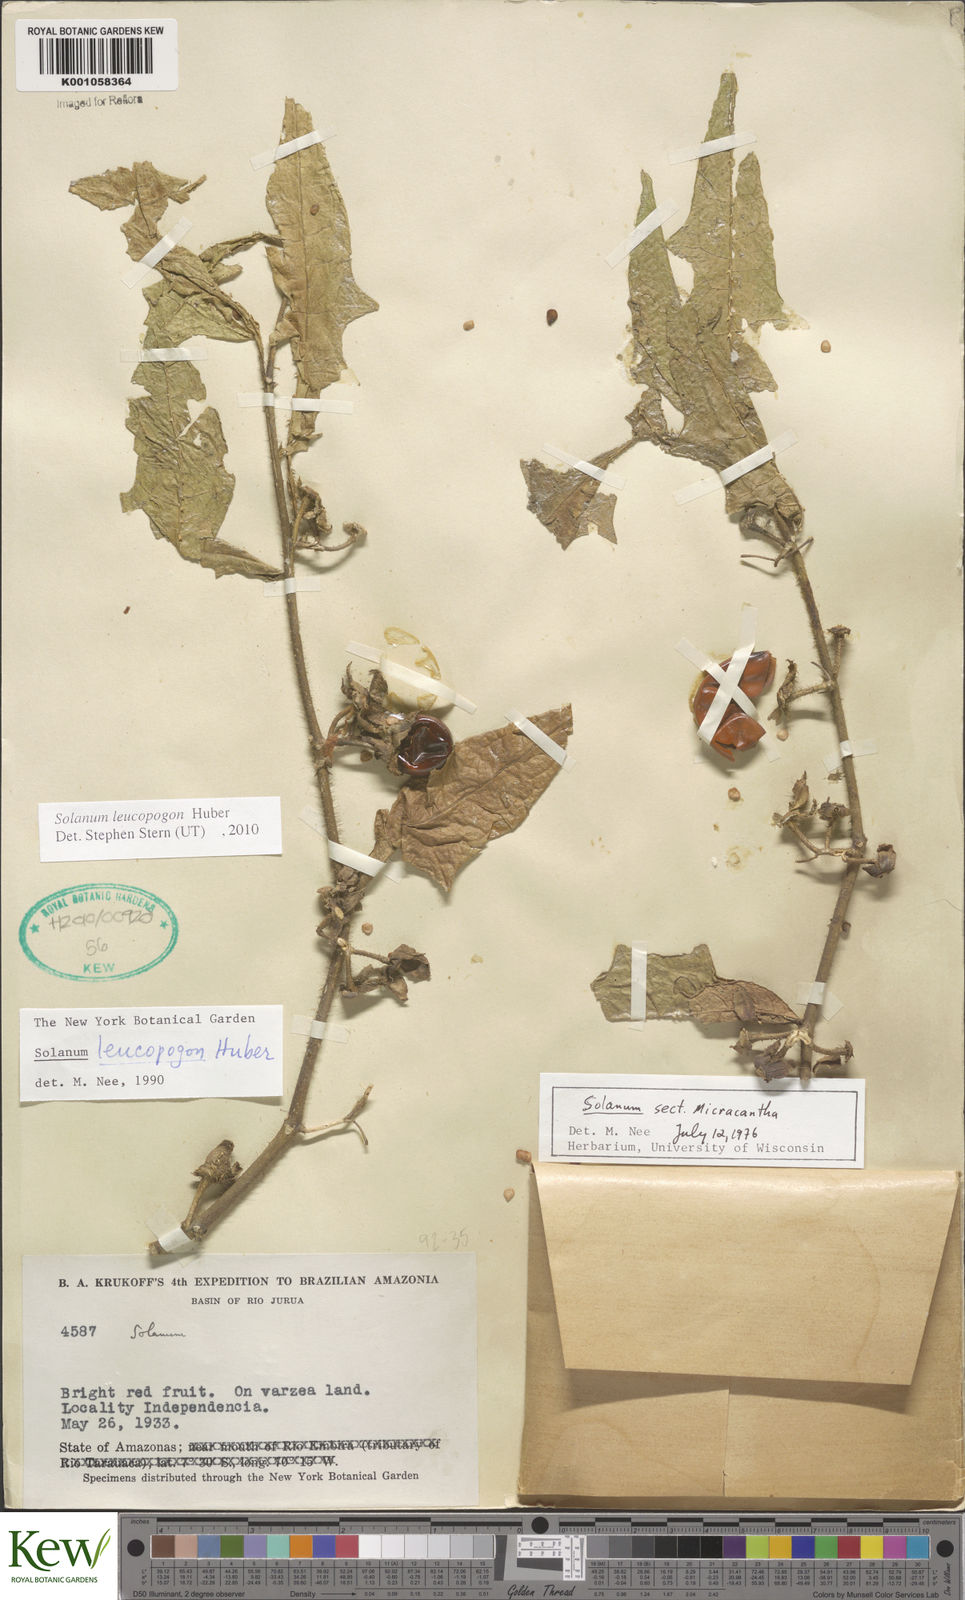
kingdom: Plantae
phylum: Tracheophyta
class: Magnoliopsida
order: Solanales
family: Solanaceae
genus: Solanum
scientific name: Solanum leucopogon
